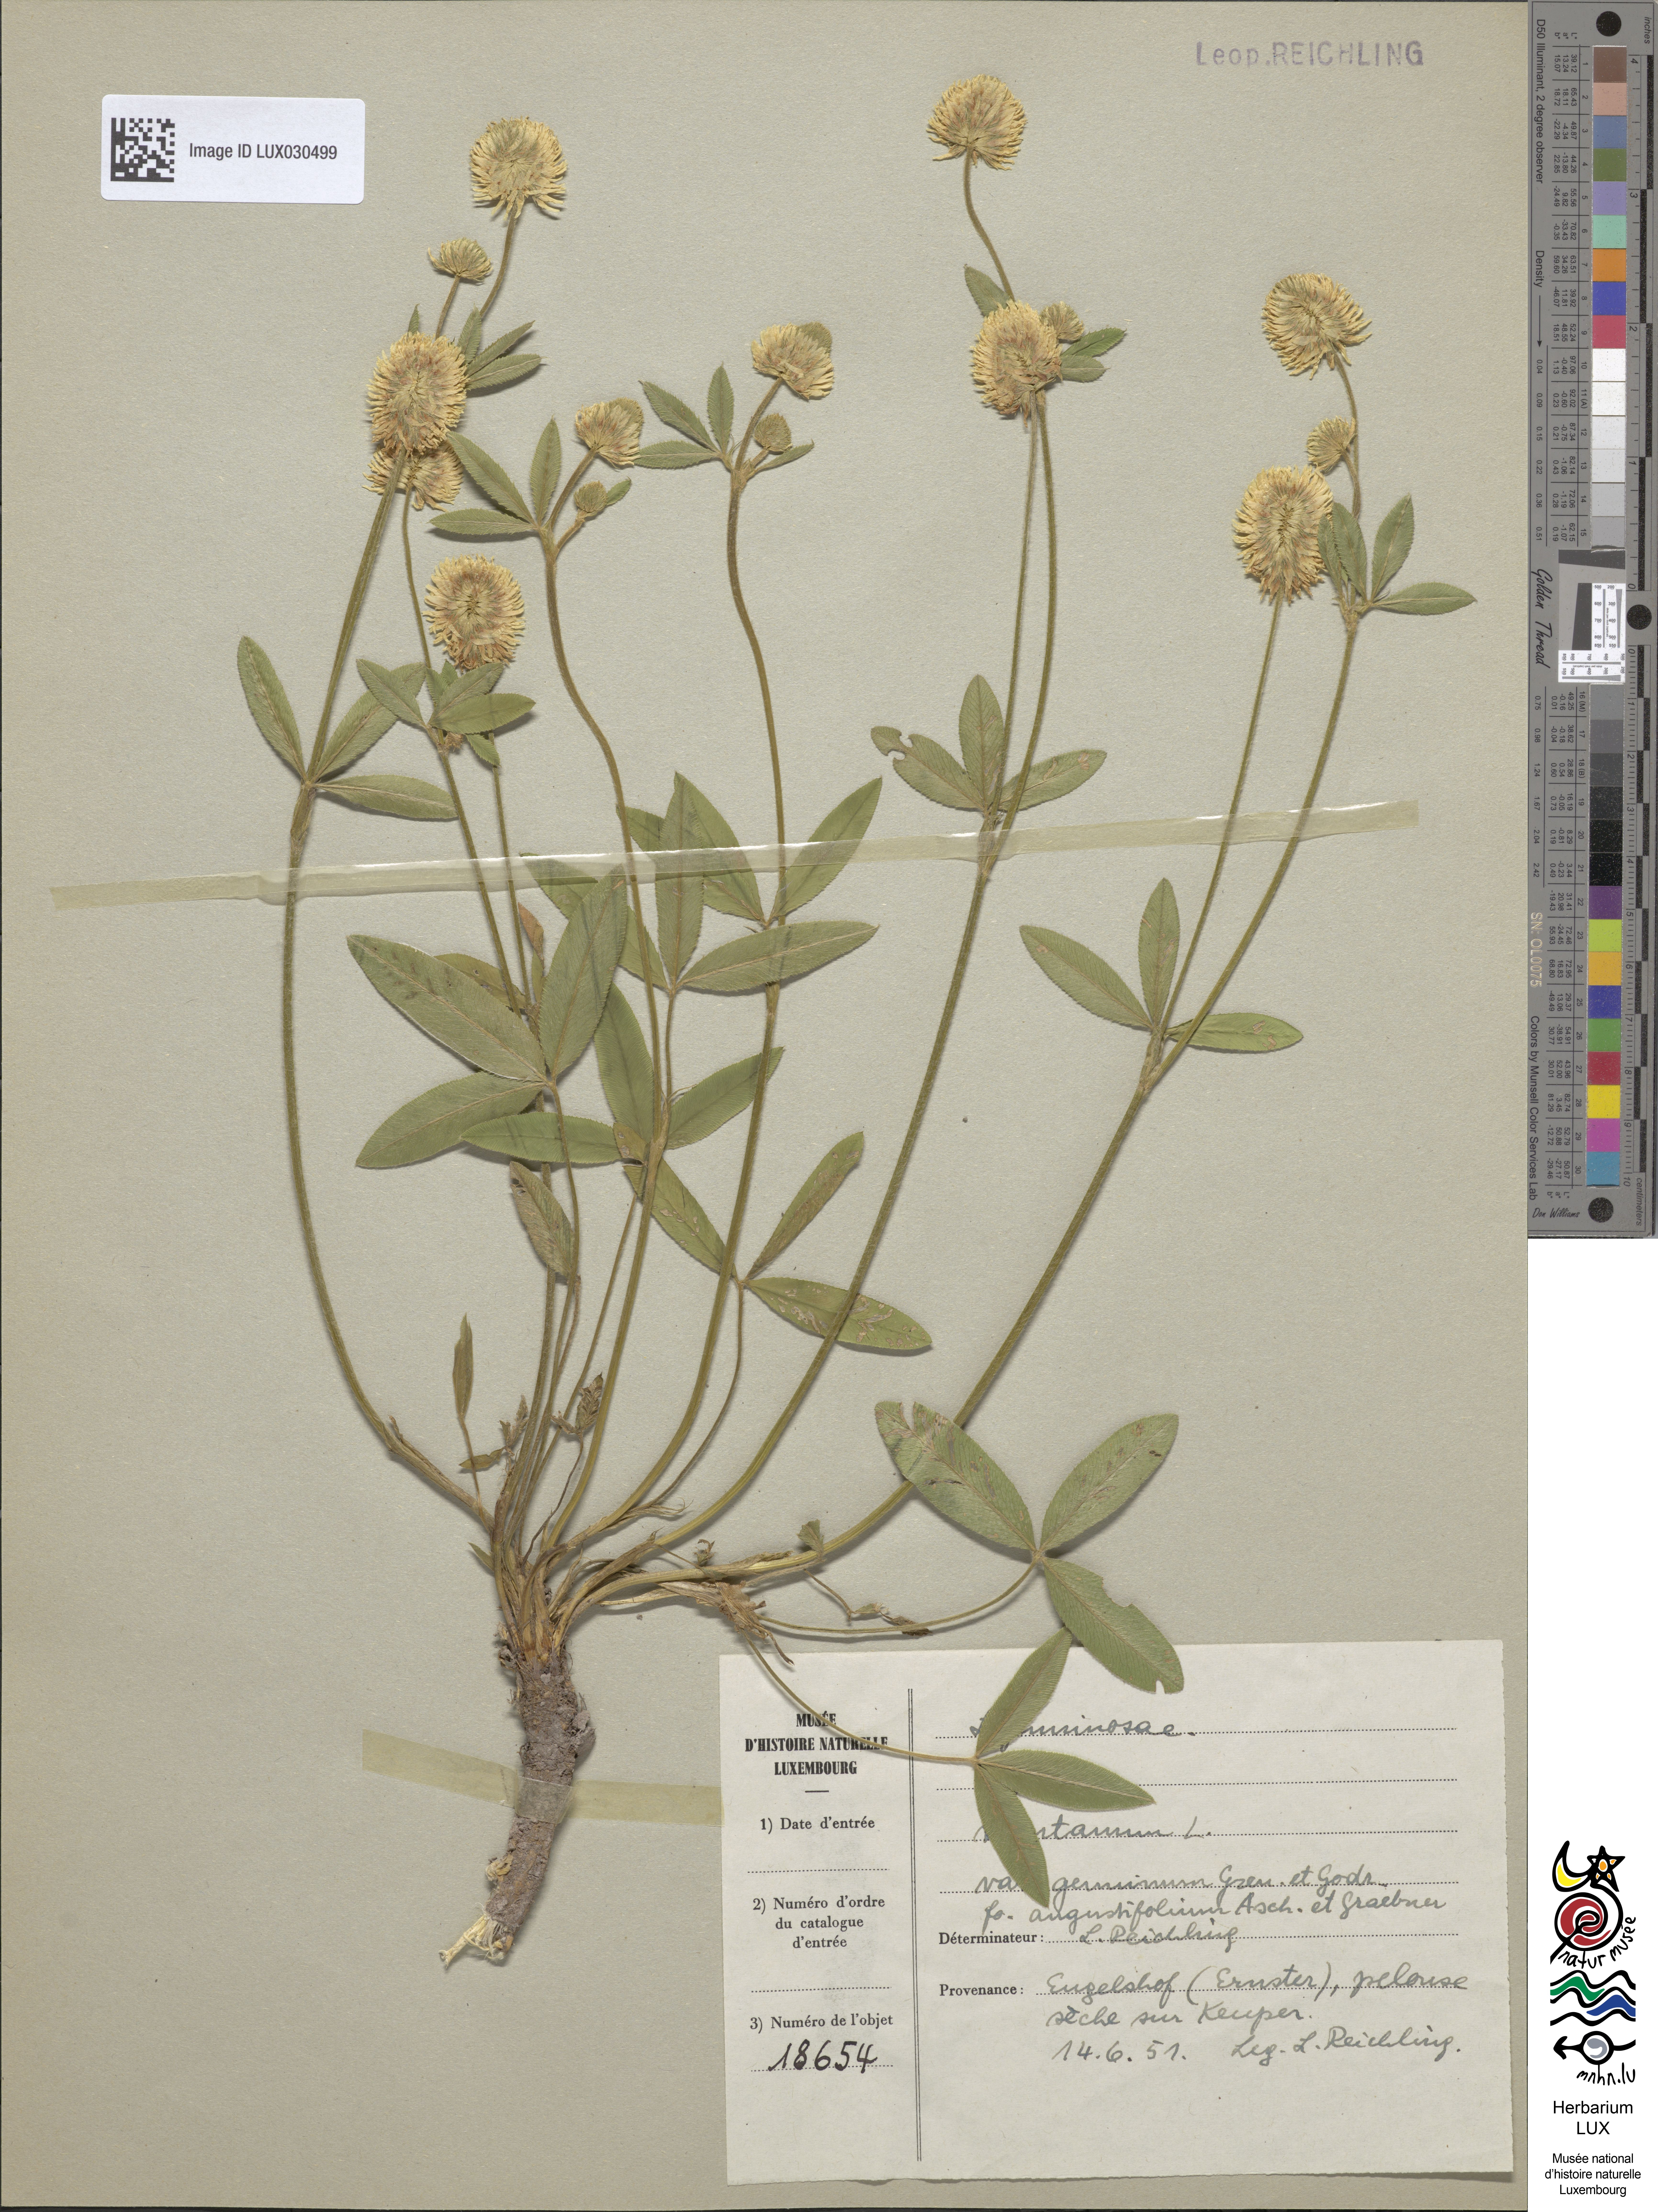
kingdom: Plantae
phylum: Tracheophyta
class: Magnoliopsida
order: Fabales
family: Fabaceae
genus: Trifolium
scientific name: Trifolium montanum
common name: Mountain clover
